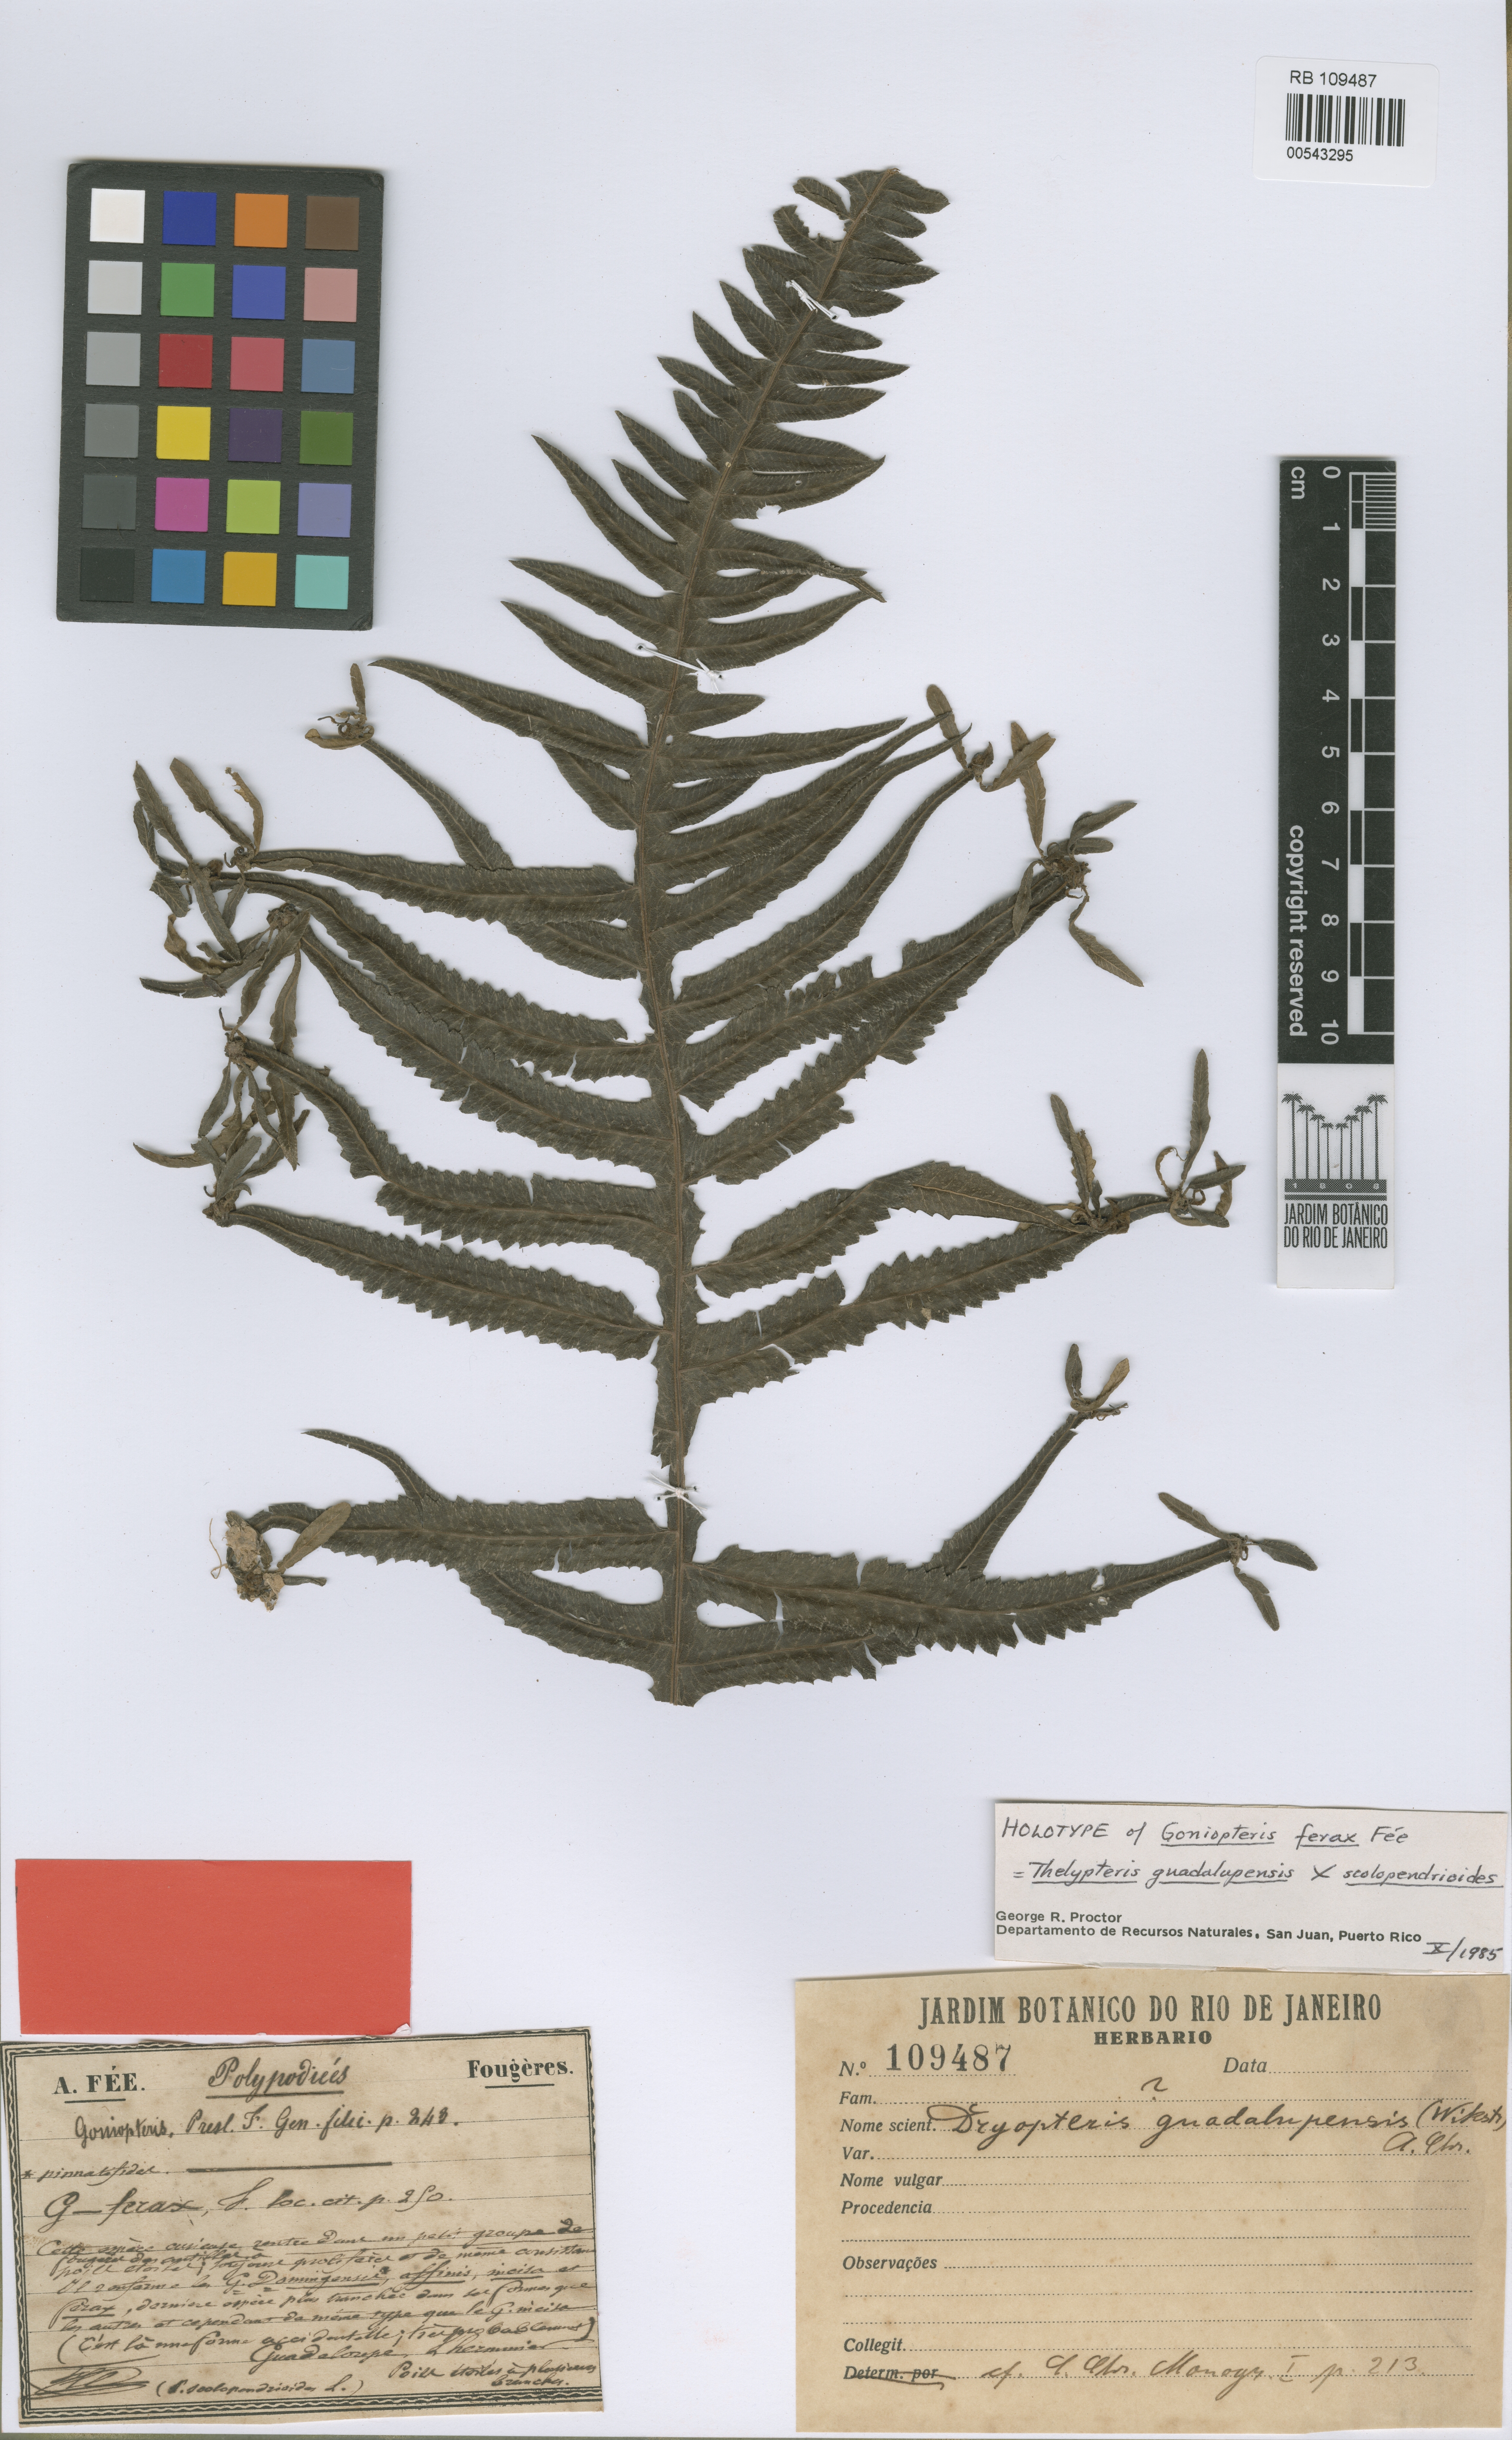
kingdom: Plantae
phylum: Tracheophyta
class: Polypodiopsida
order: Polypodiales
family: Thelypteridaceae
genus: Goniopteris
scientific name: Goniopteris domingensis
